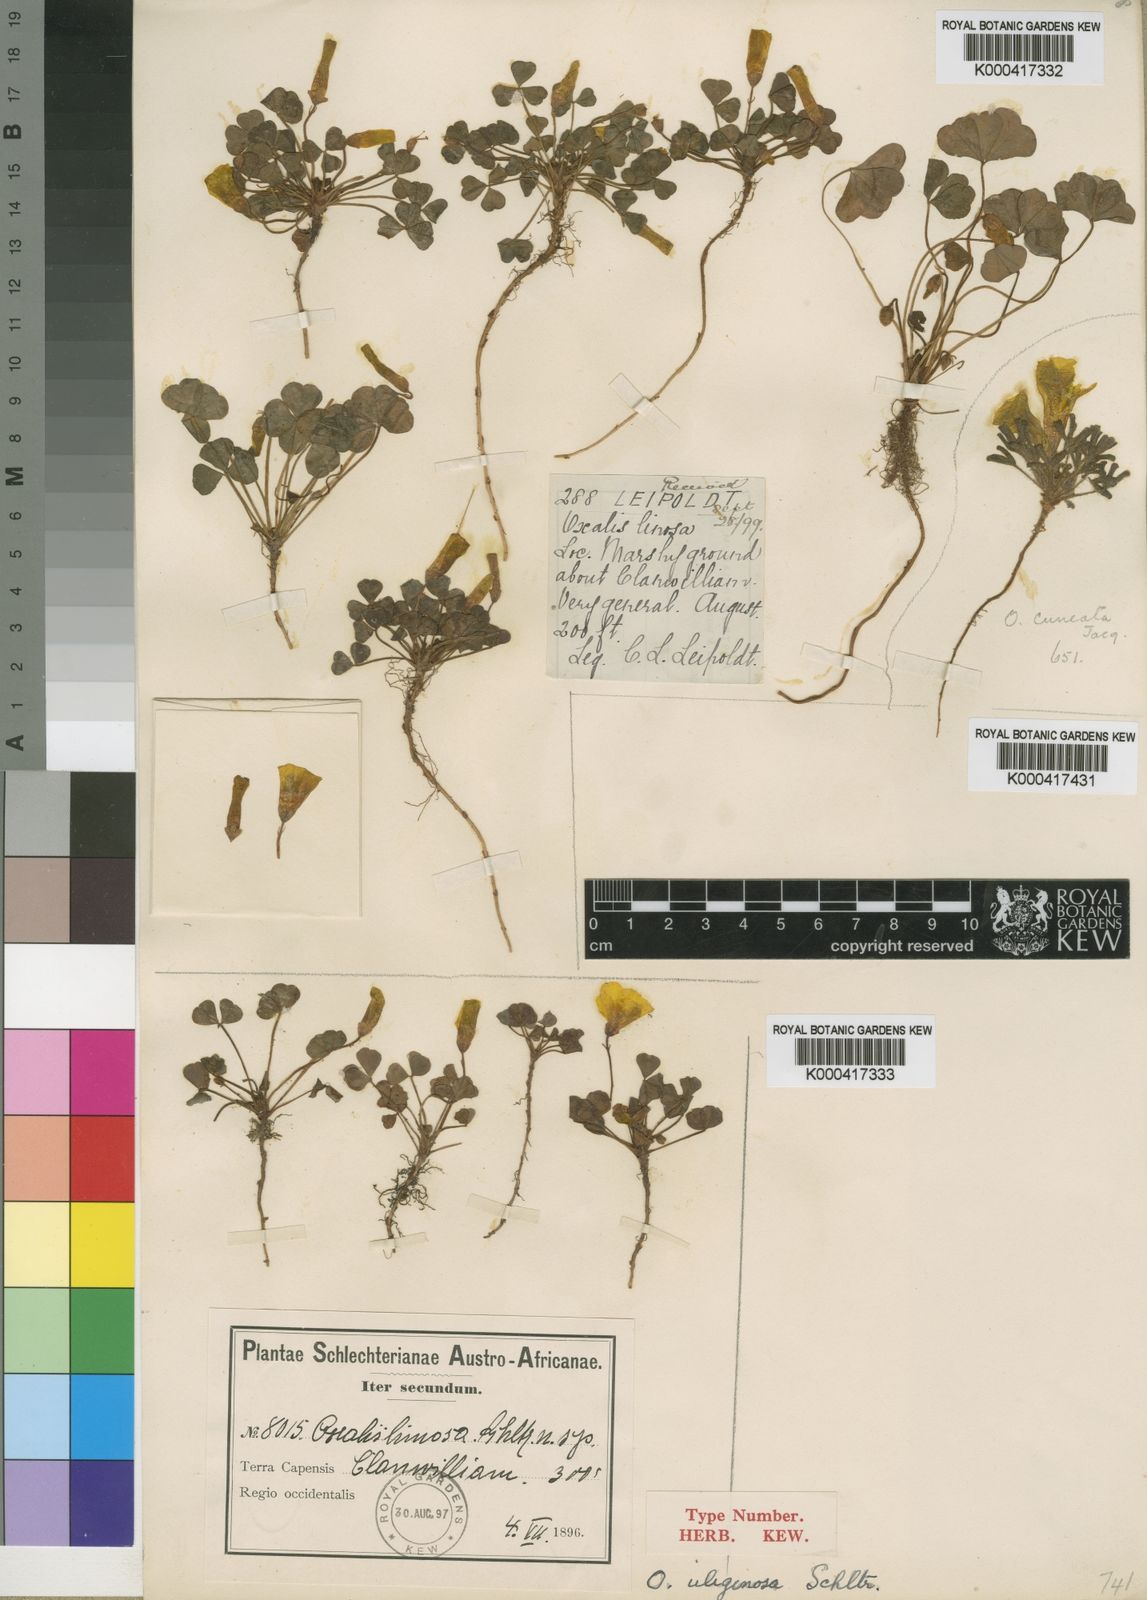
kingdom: Plantae
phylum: Tracheophyta
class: Magnoliopsida
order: Oxalidales
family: Oxalidaceae
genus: Oxalis
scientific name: Oxalis uliginosa
